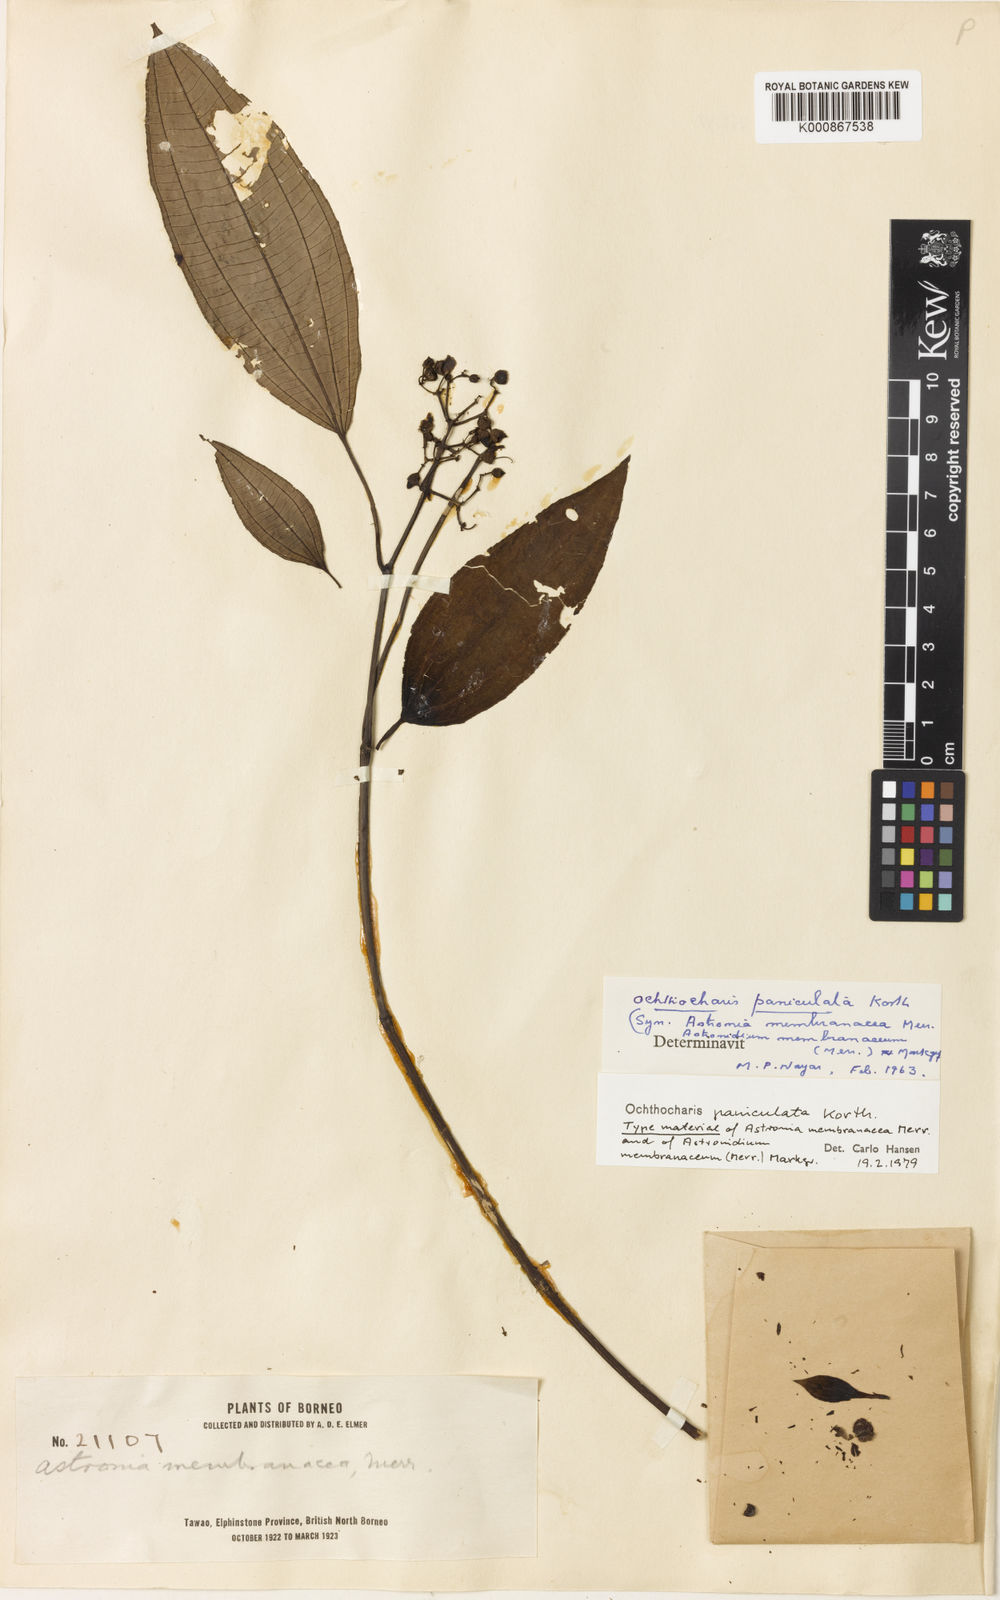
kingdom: Plantae
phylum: Tracheophyta
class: Magnoliopsida
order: Myrtales
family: Melastomataceae
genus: Ochthocharis
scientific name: Ochthocharis paniculata
